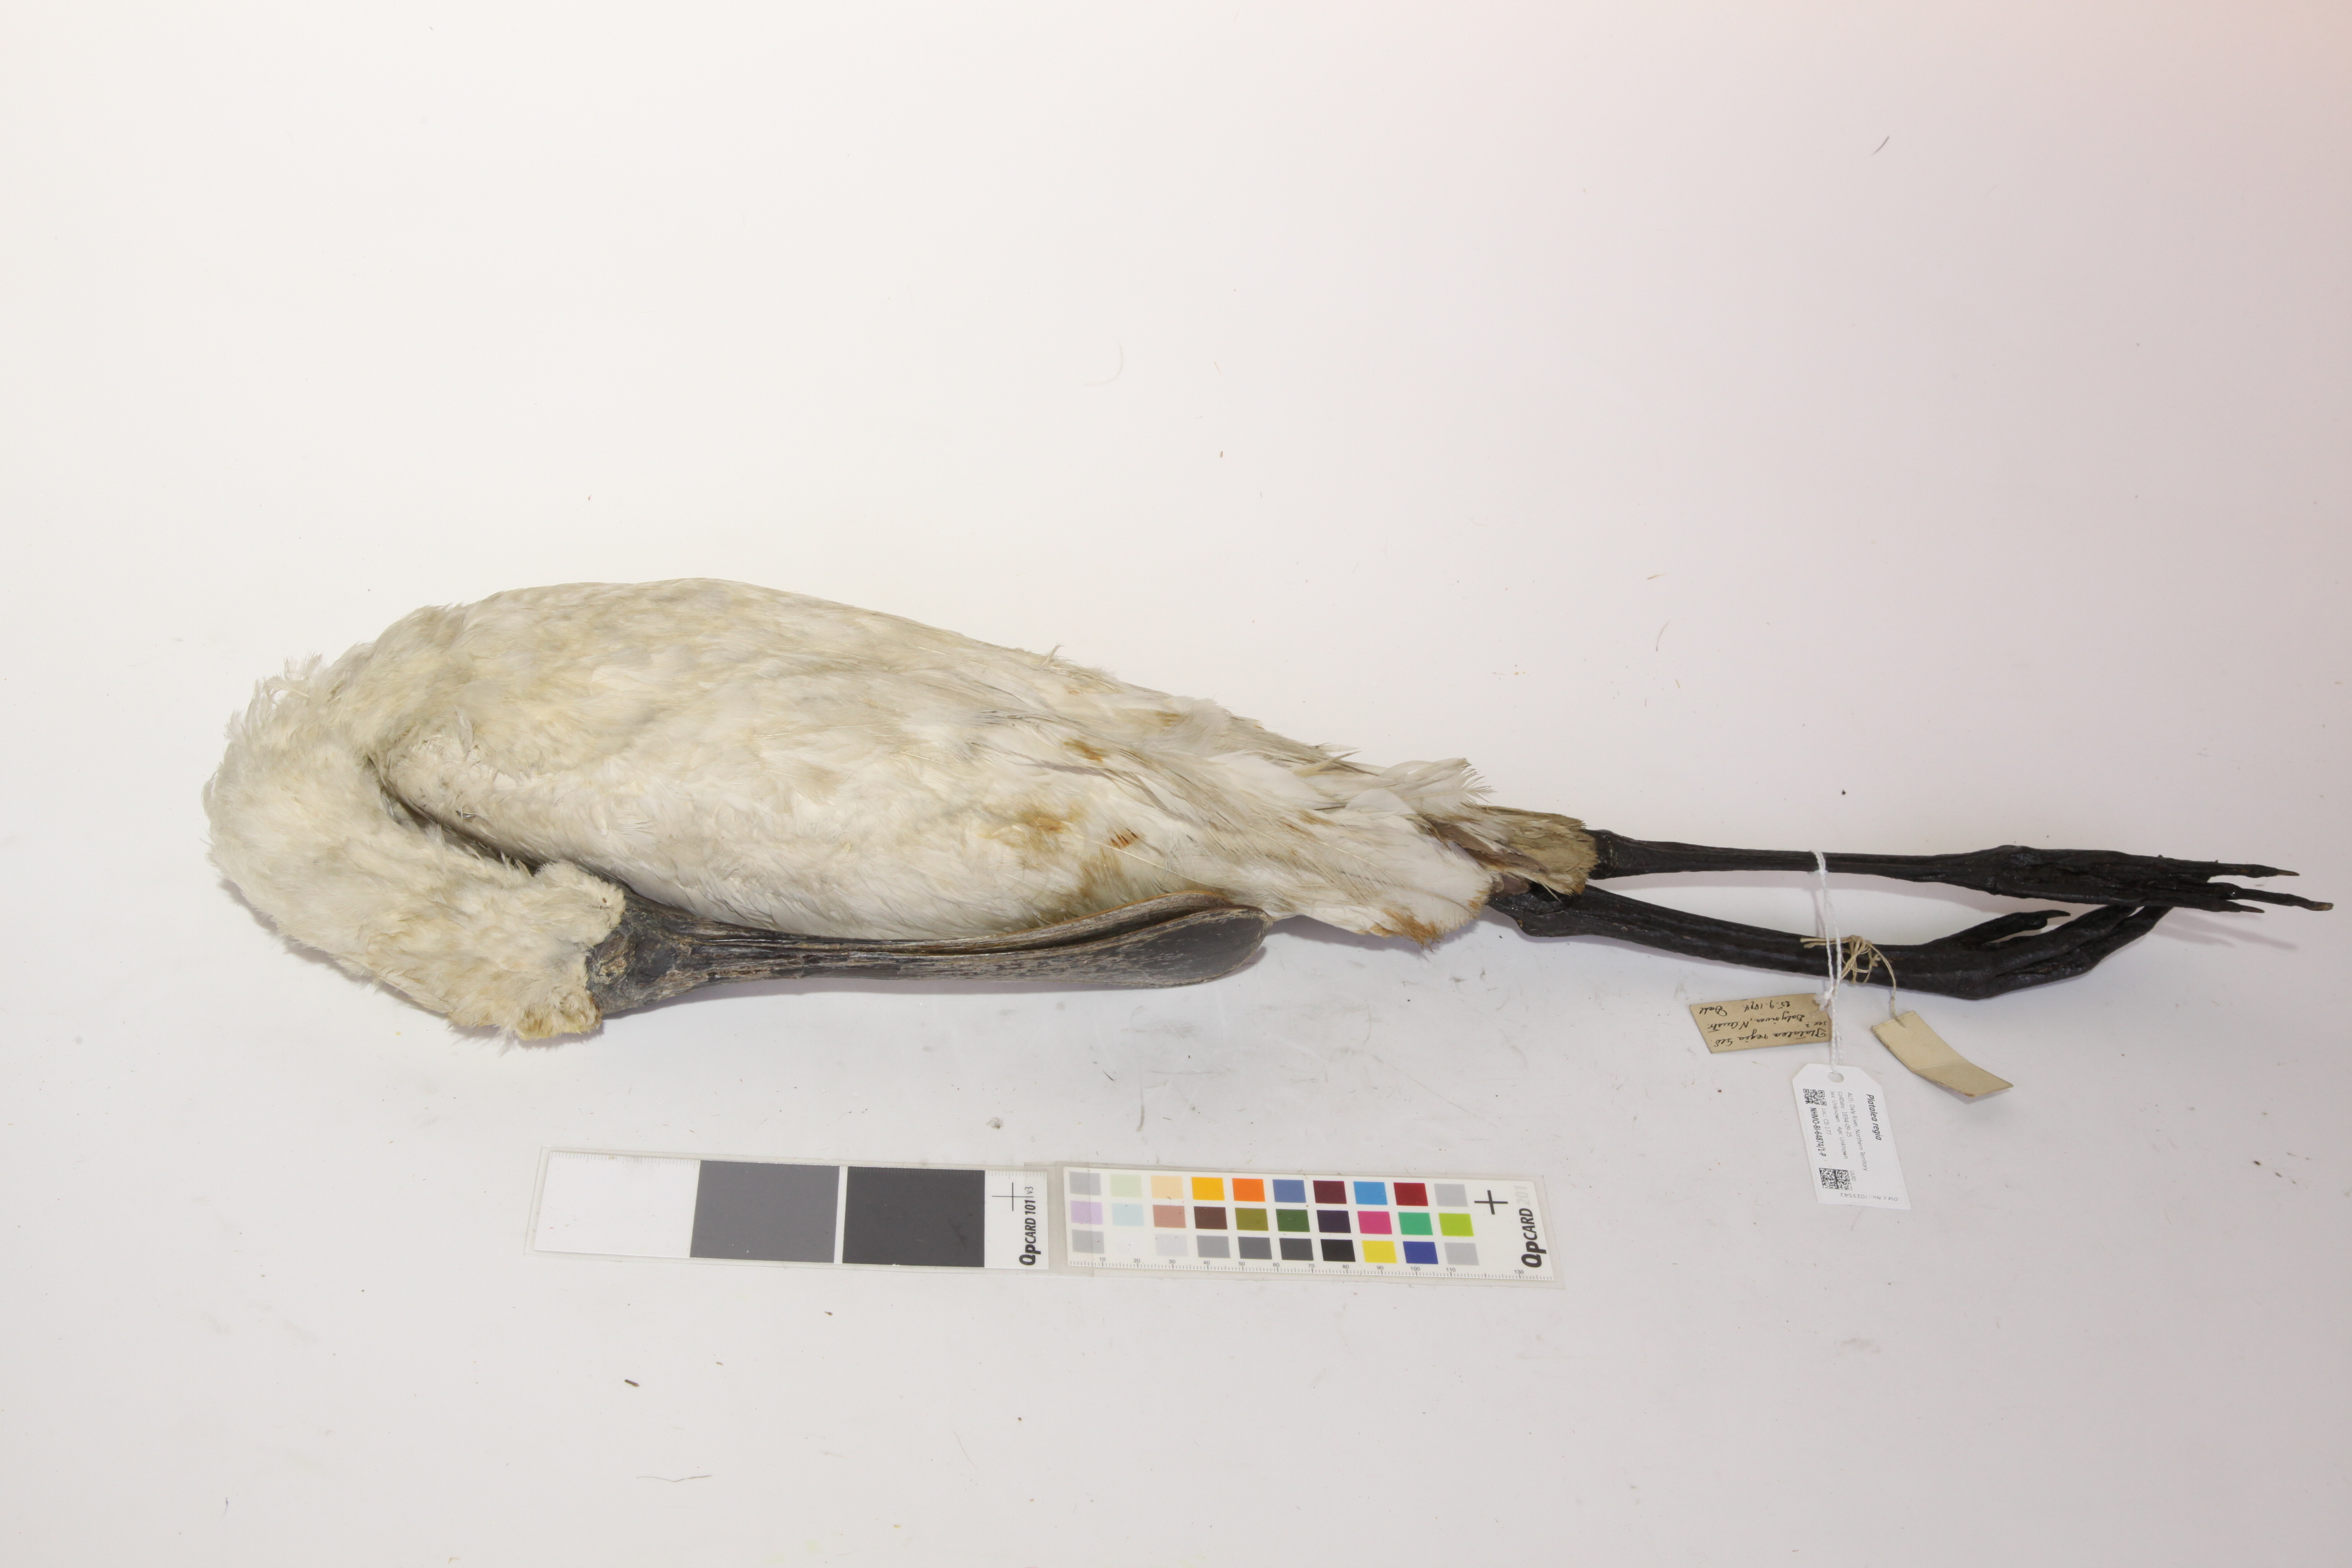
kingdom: Animalia
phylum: Chordata
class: Aves
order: Pelecaniformes
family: Threskiornithidae
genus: Platalea
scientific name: Platalea regia
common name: Royal spoonbill
